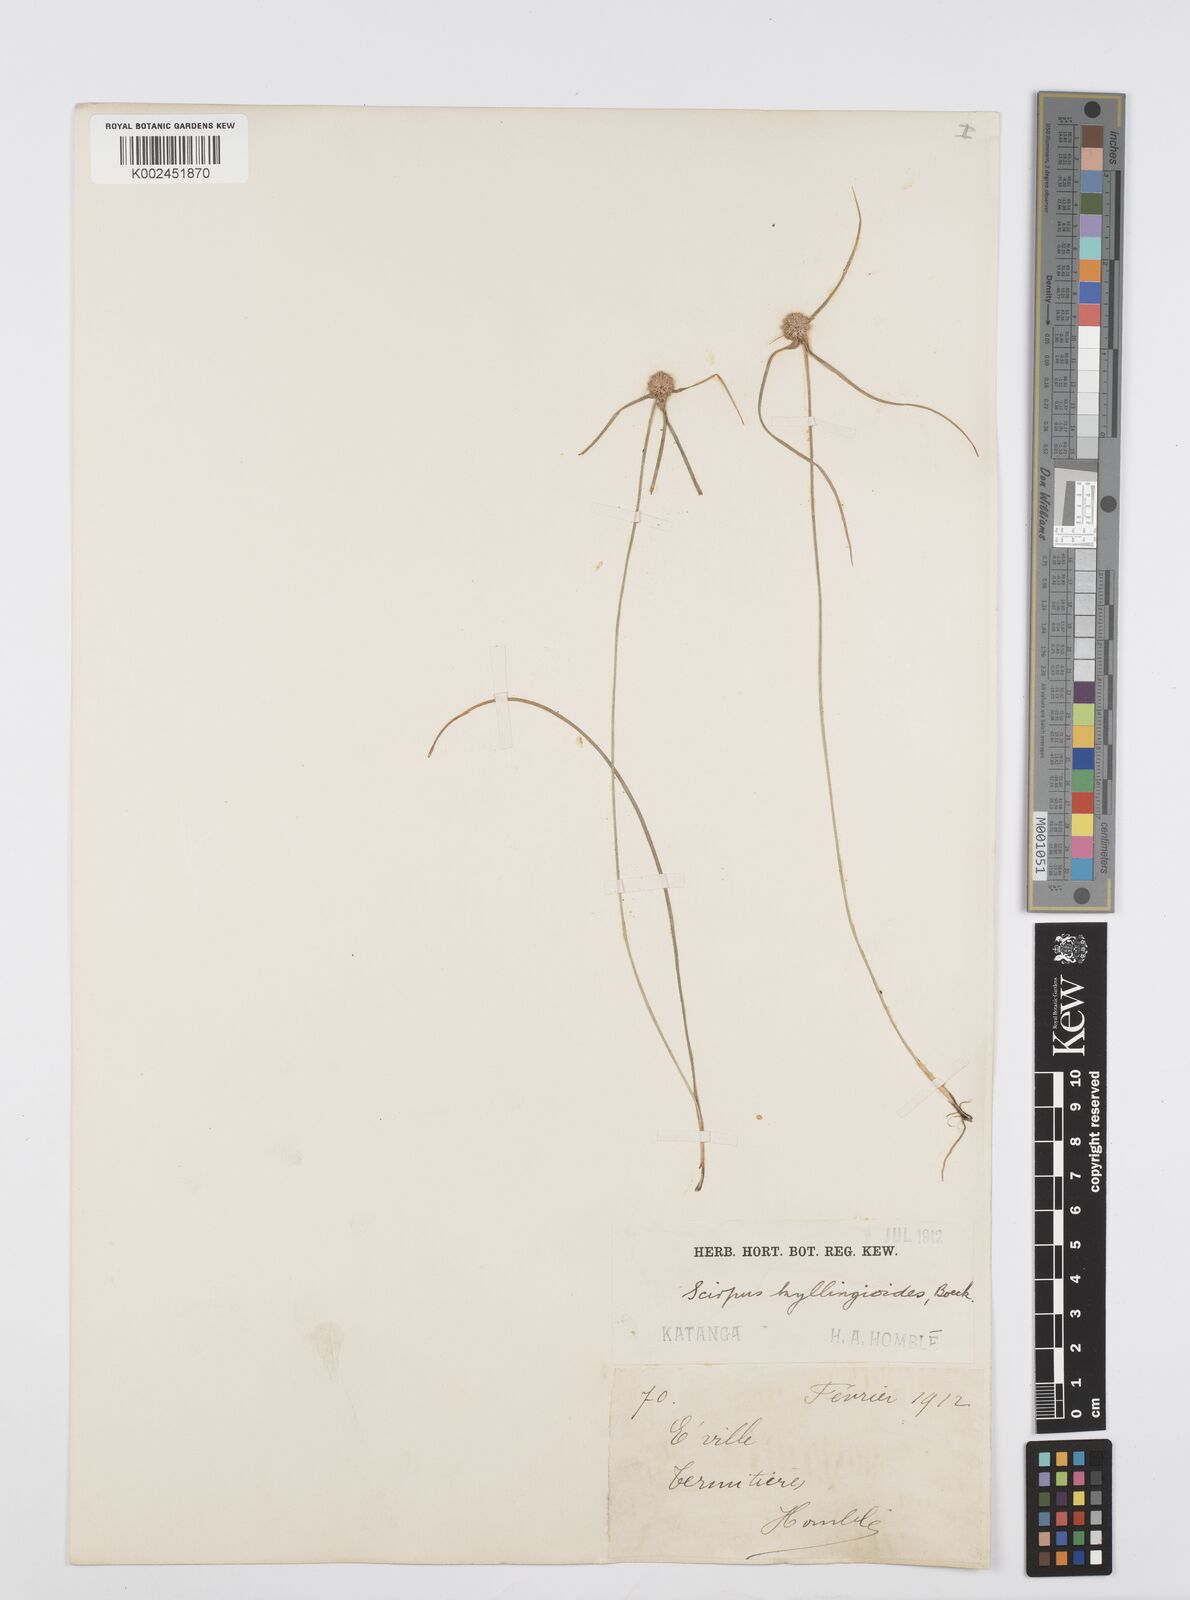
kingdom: Plantae
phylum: Tracheophyta
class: Liliopsida
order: Poales
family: Cyperaceae
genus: Cyperus
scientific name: Cyperus microcephalus
